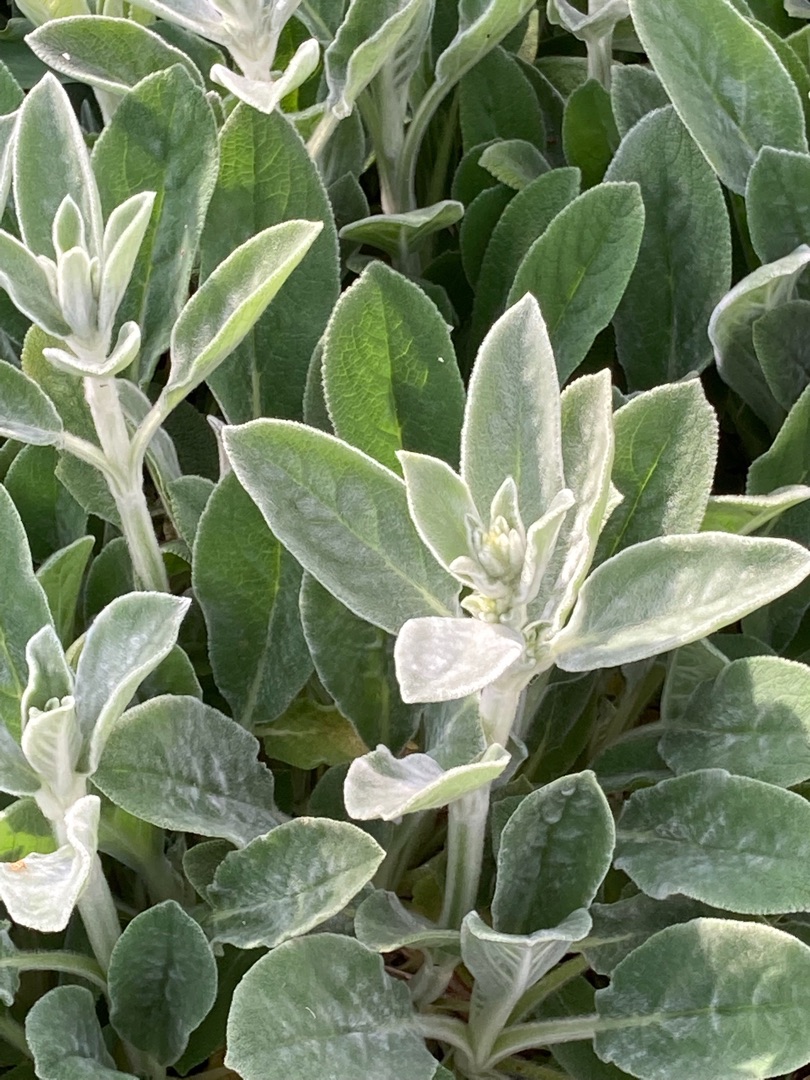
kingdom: Plantae
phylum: Tracheophyta
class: Magnoliopsida
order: Lamiales
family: Lamiaceae
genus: Stachys
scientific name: Stachys byzantina
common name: Lammeøre
